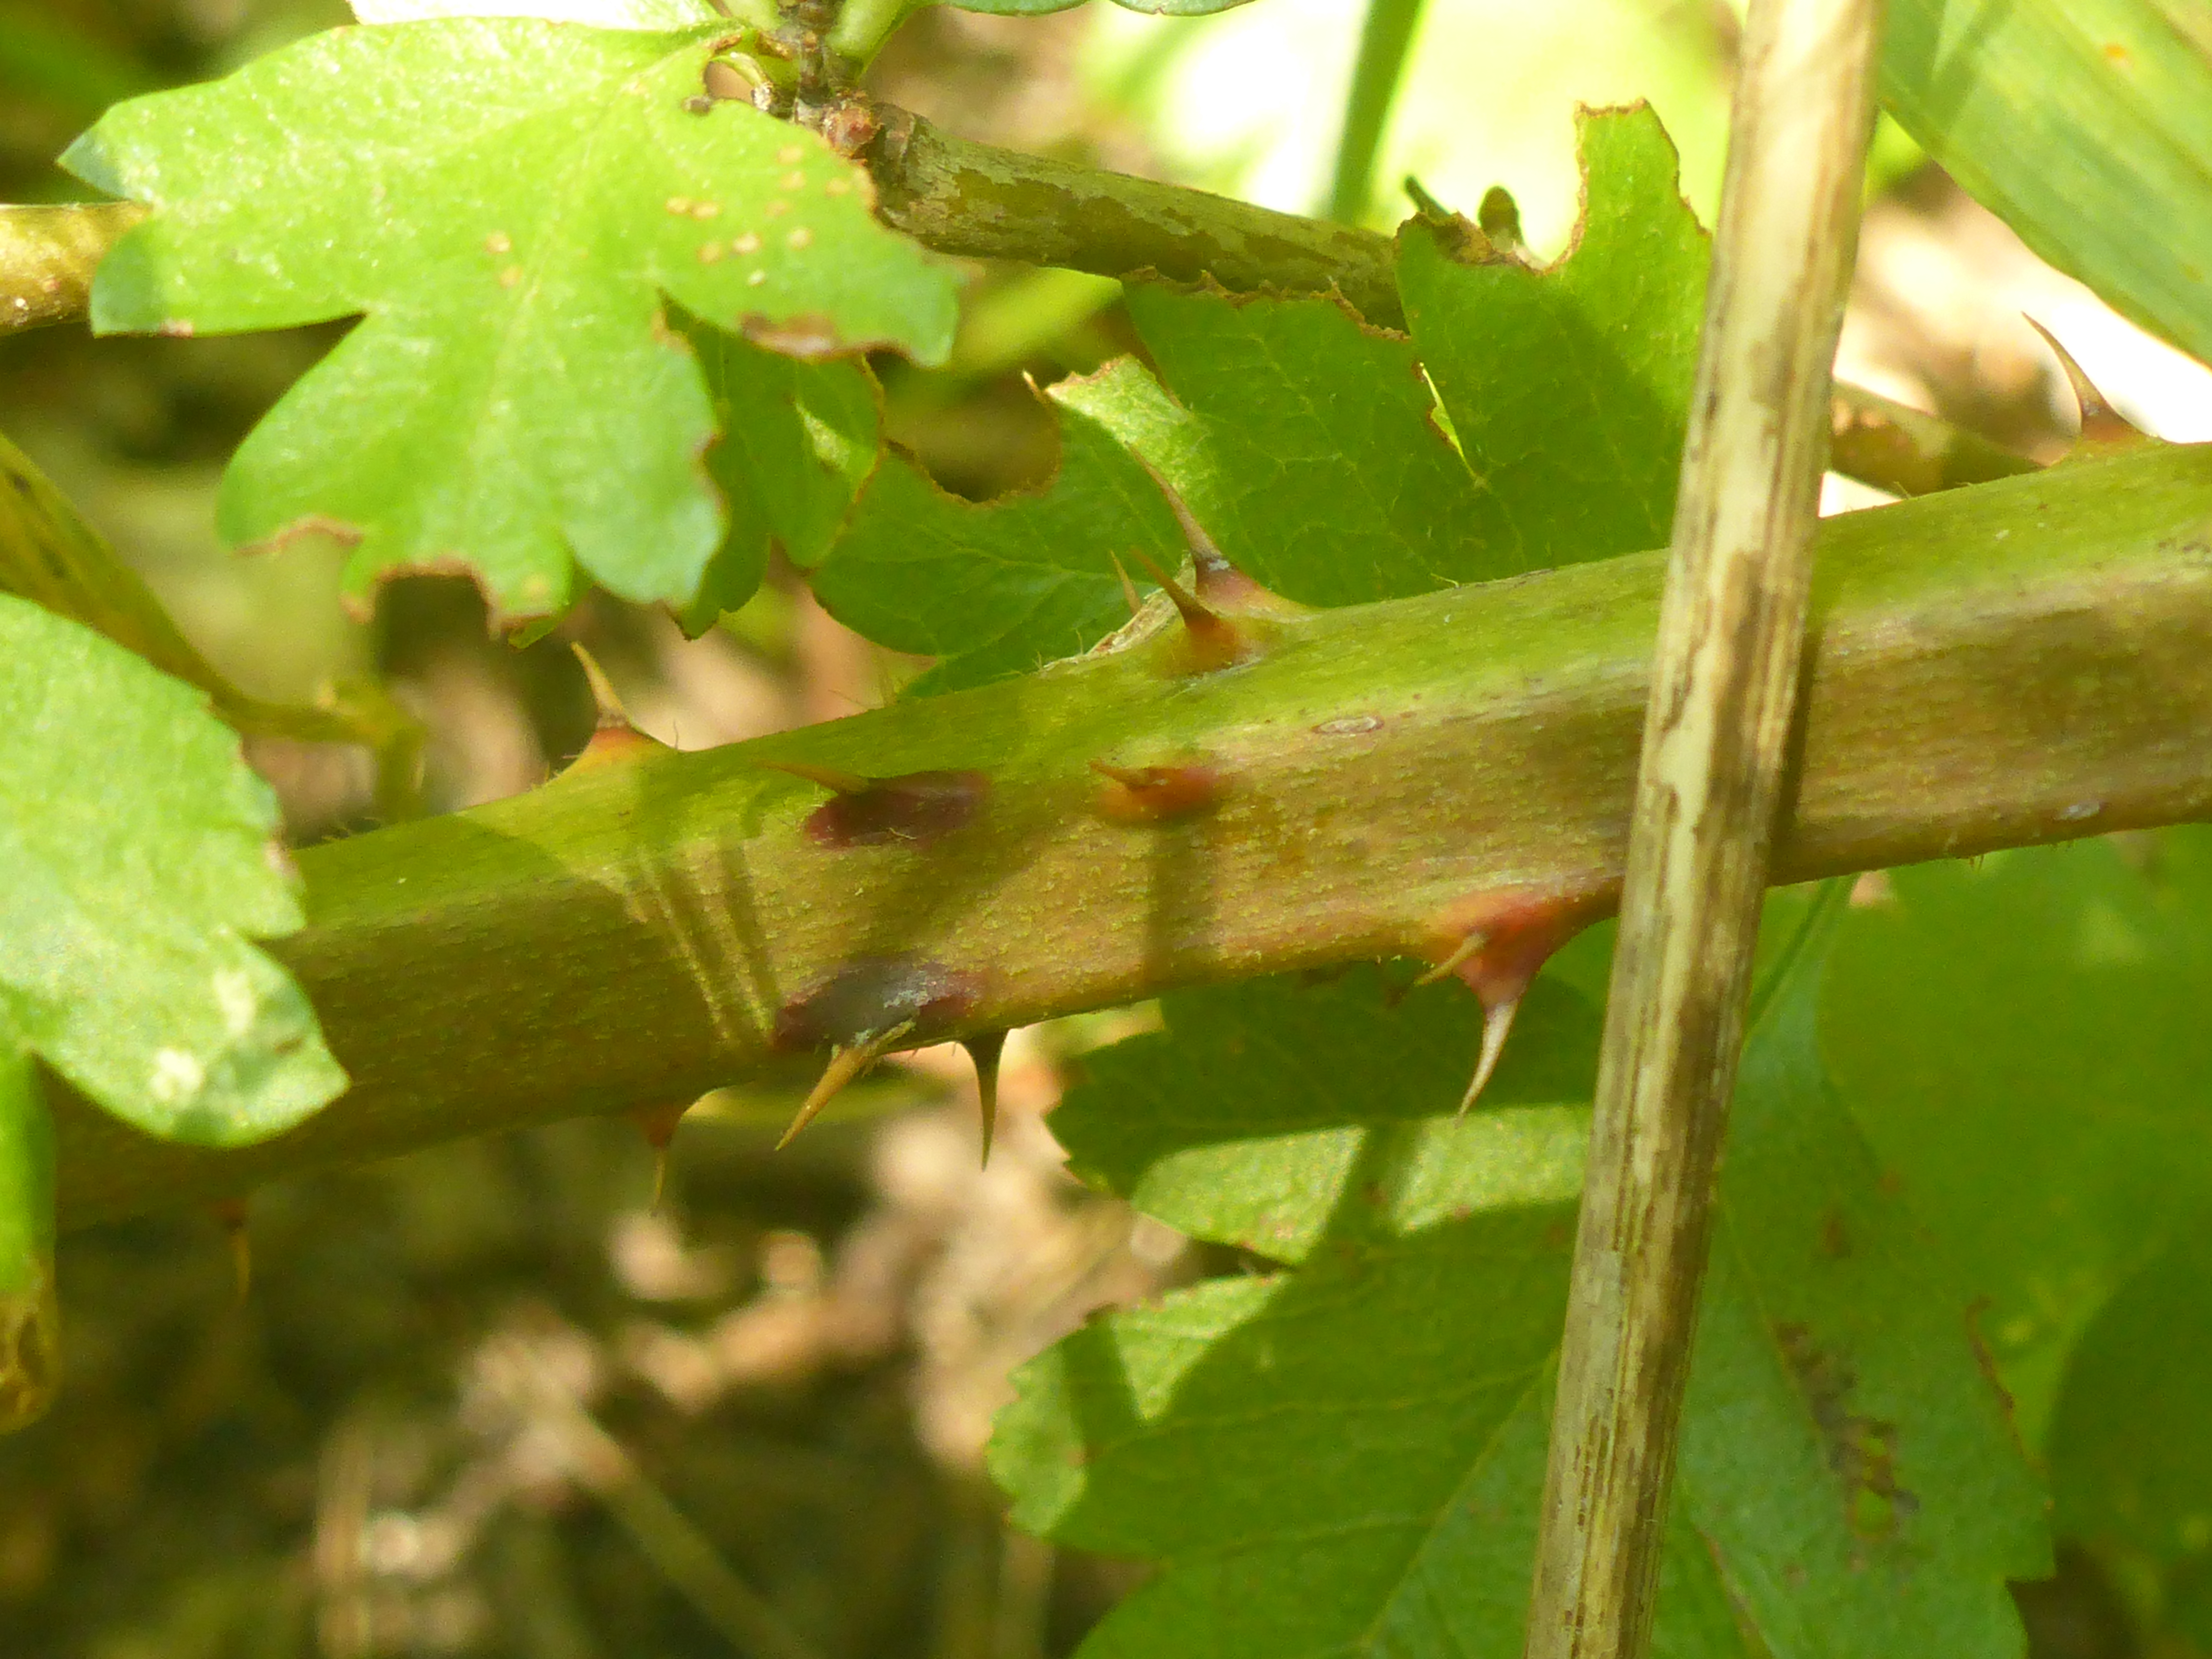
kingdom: Plantae
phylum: Tracheophyta
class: Magnoliopsida
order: Rosales
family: Rosaceae
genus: Rubus
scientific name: Rubus laciniatus
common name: Fliget brombær
